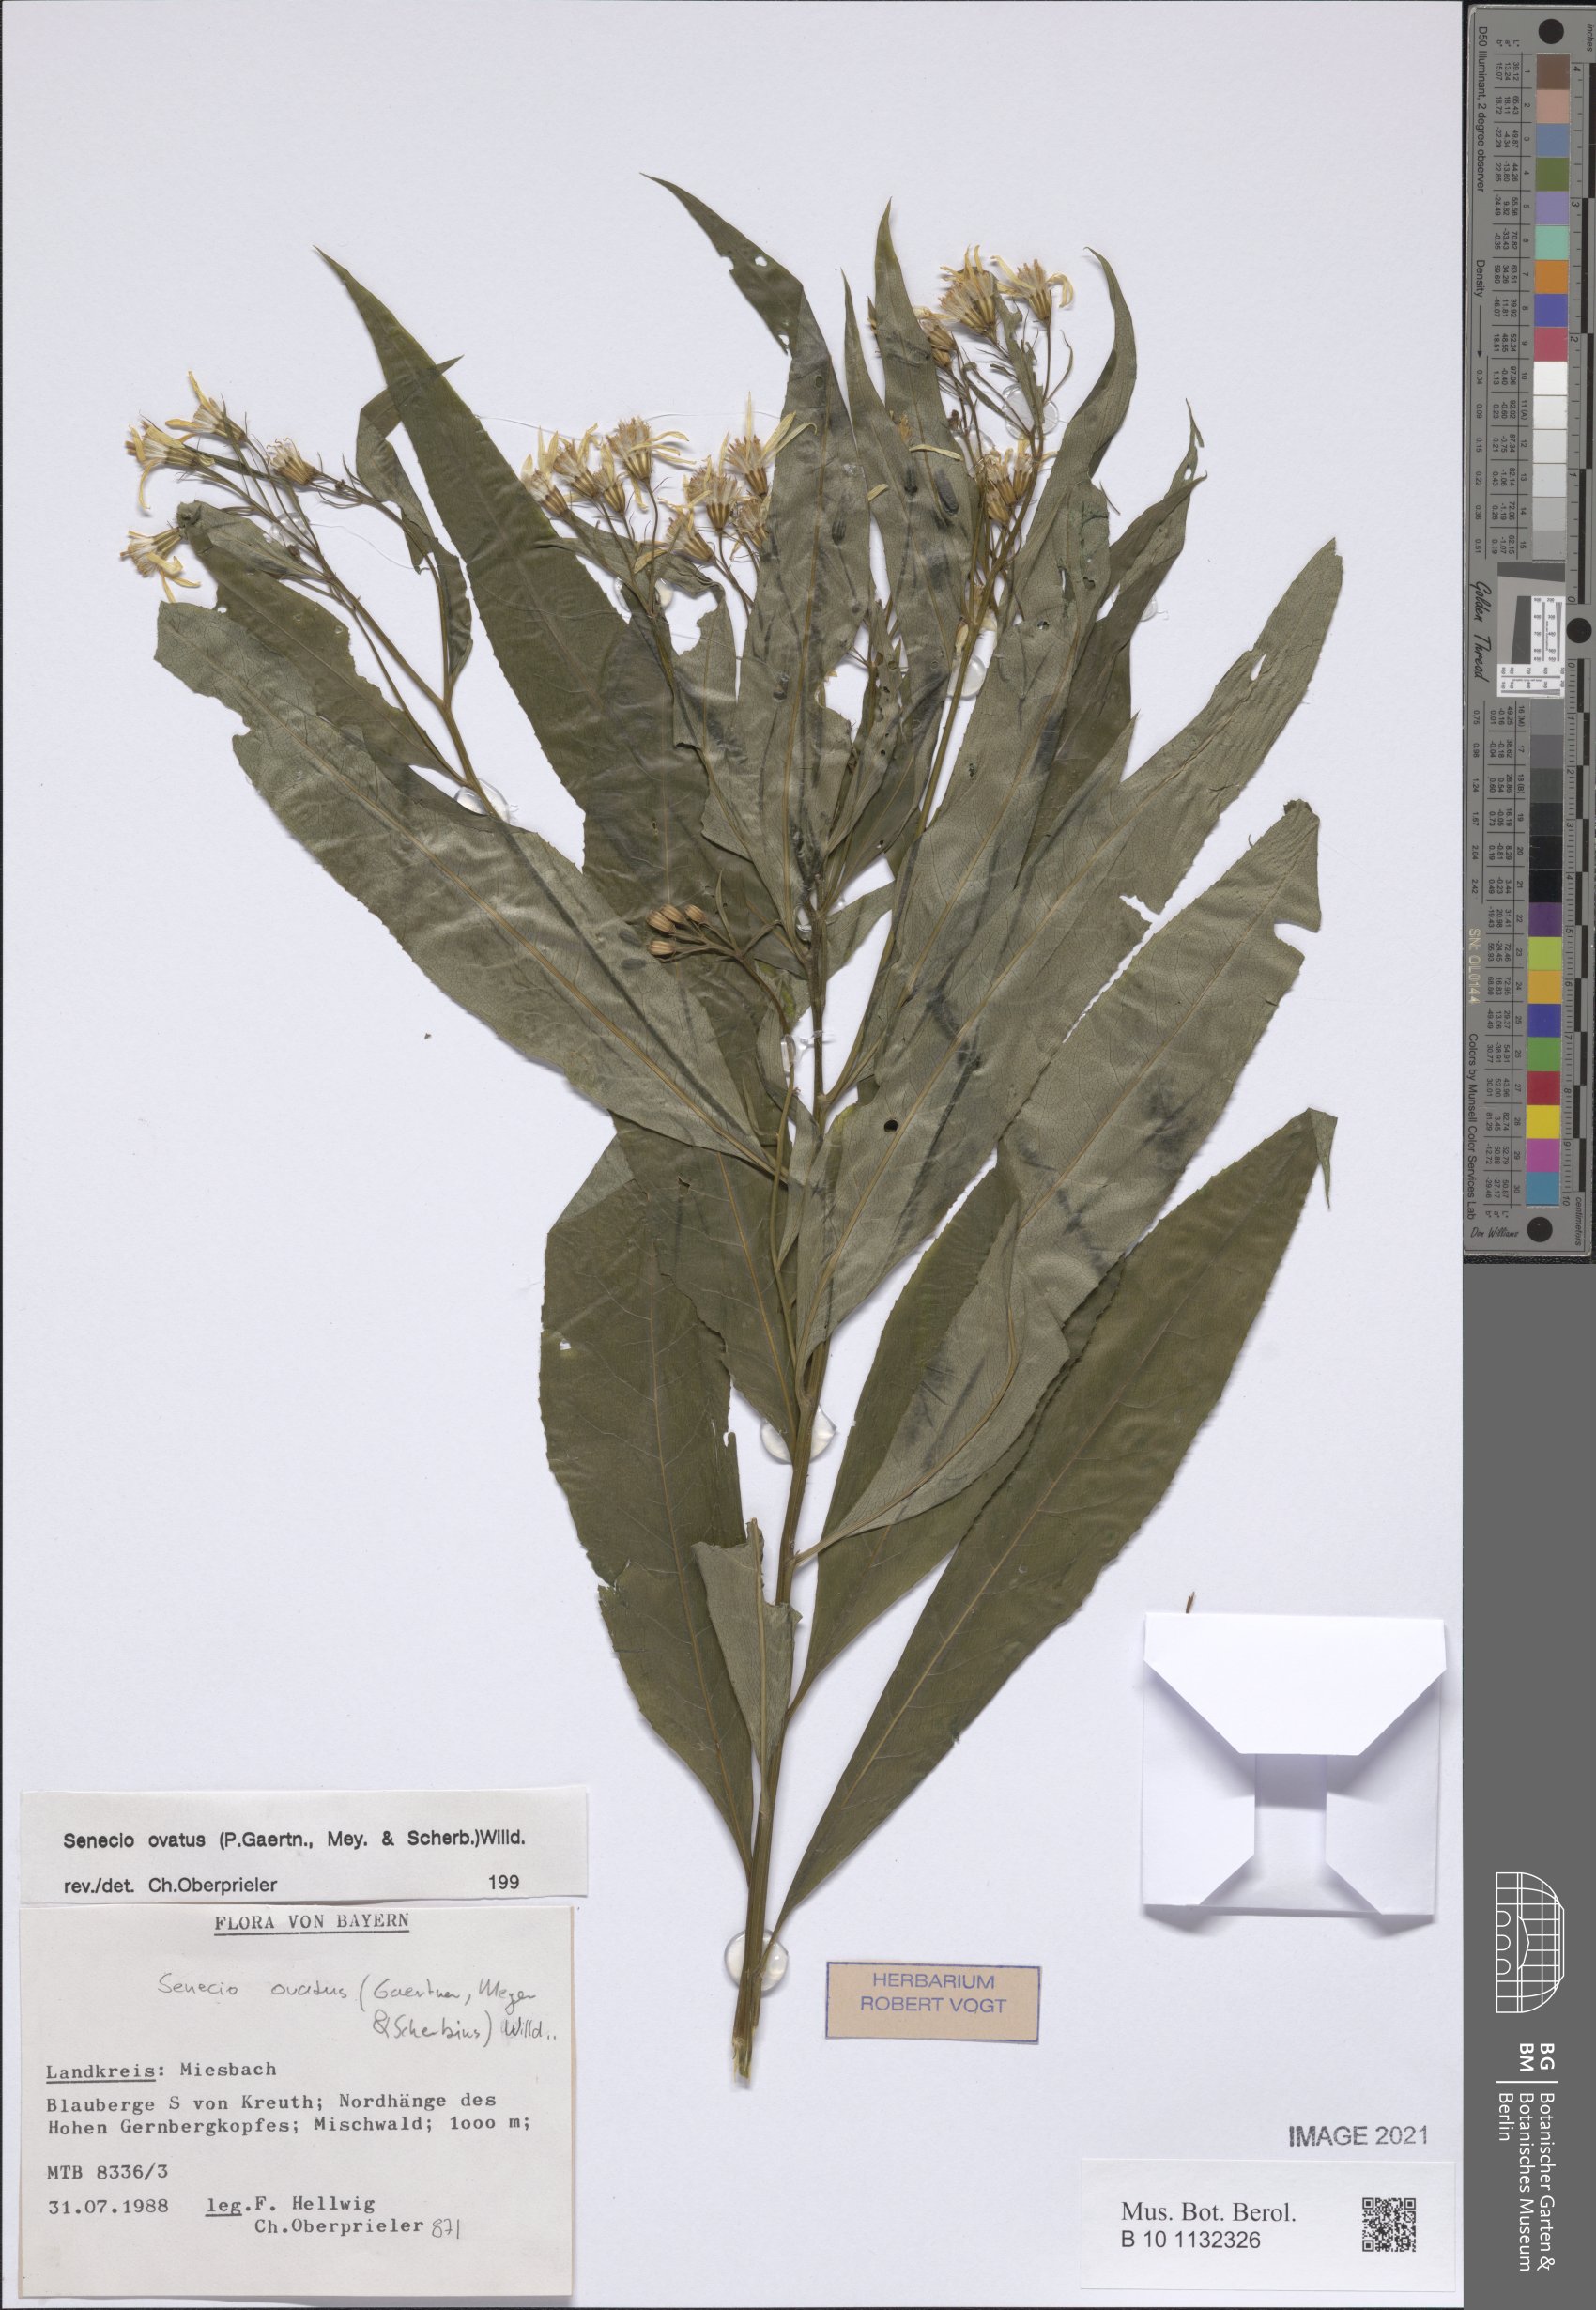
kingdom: Plantae
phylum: Tracheophyta
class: Magnoliopsida
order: Asterales
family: Asteraceae
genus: Senecio
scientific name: Senecio ovatus
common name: Wood ragwort
